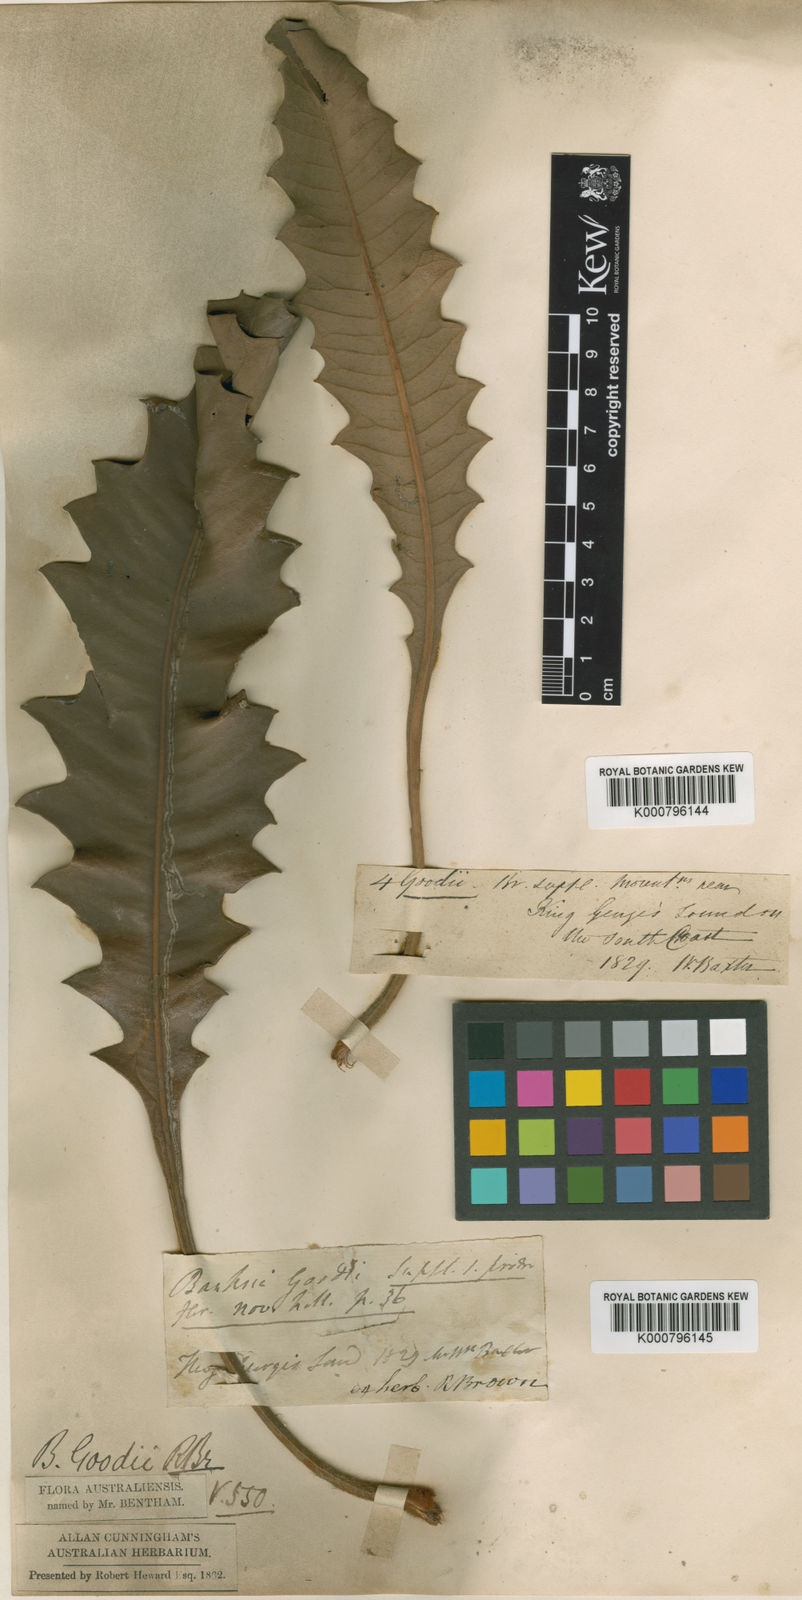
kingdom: Plantae
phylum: Tracheophyta
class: Magnoliopsida
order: Proteales
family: Proteaceae
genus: Banksia
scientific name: Banksia goodii
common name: Good’s banksia
